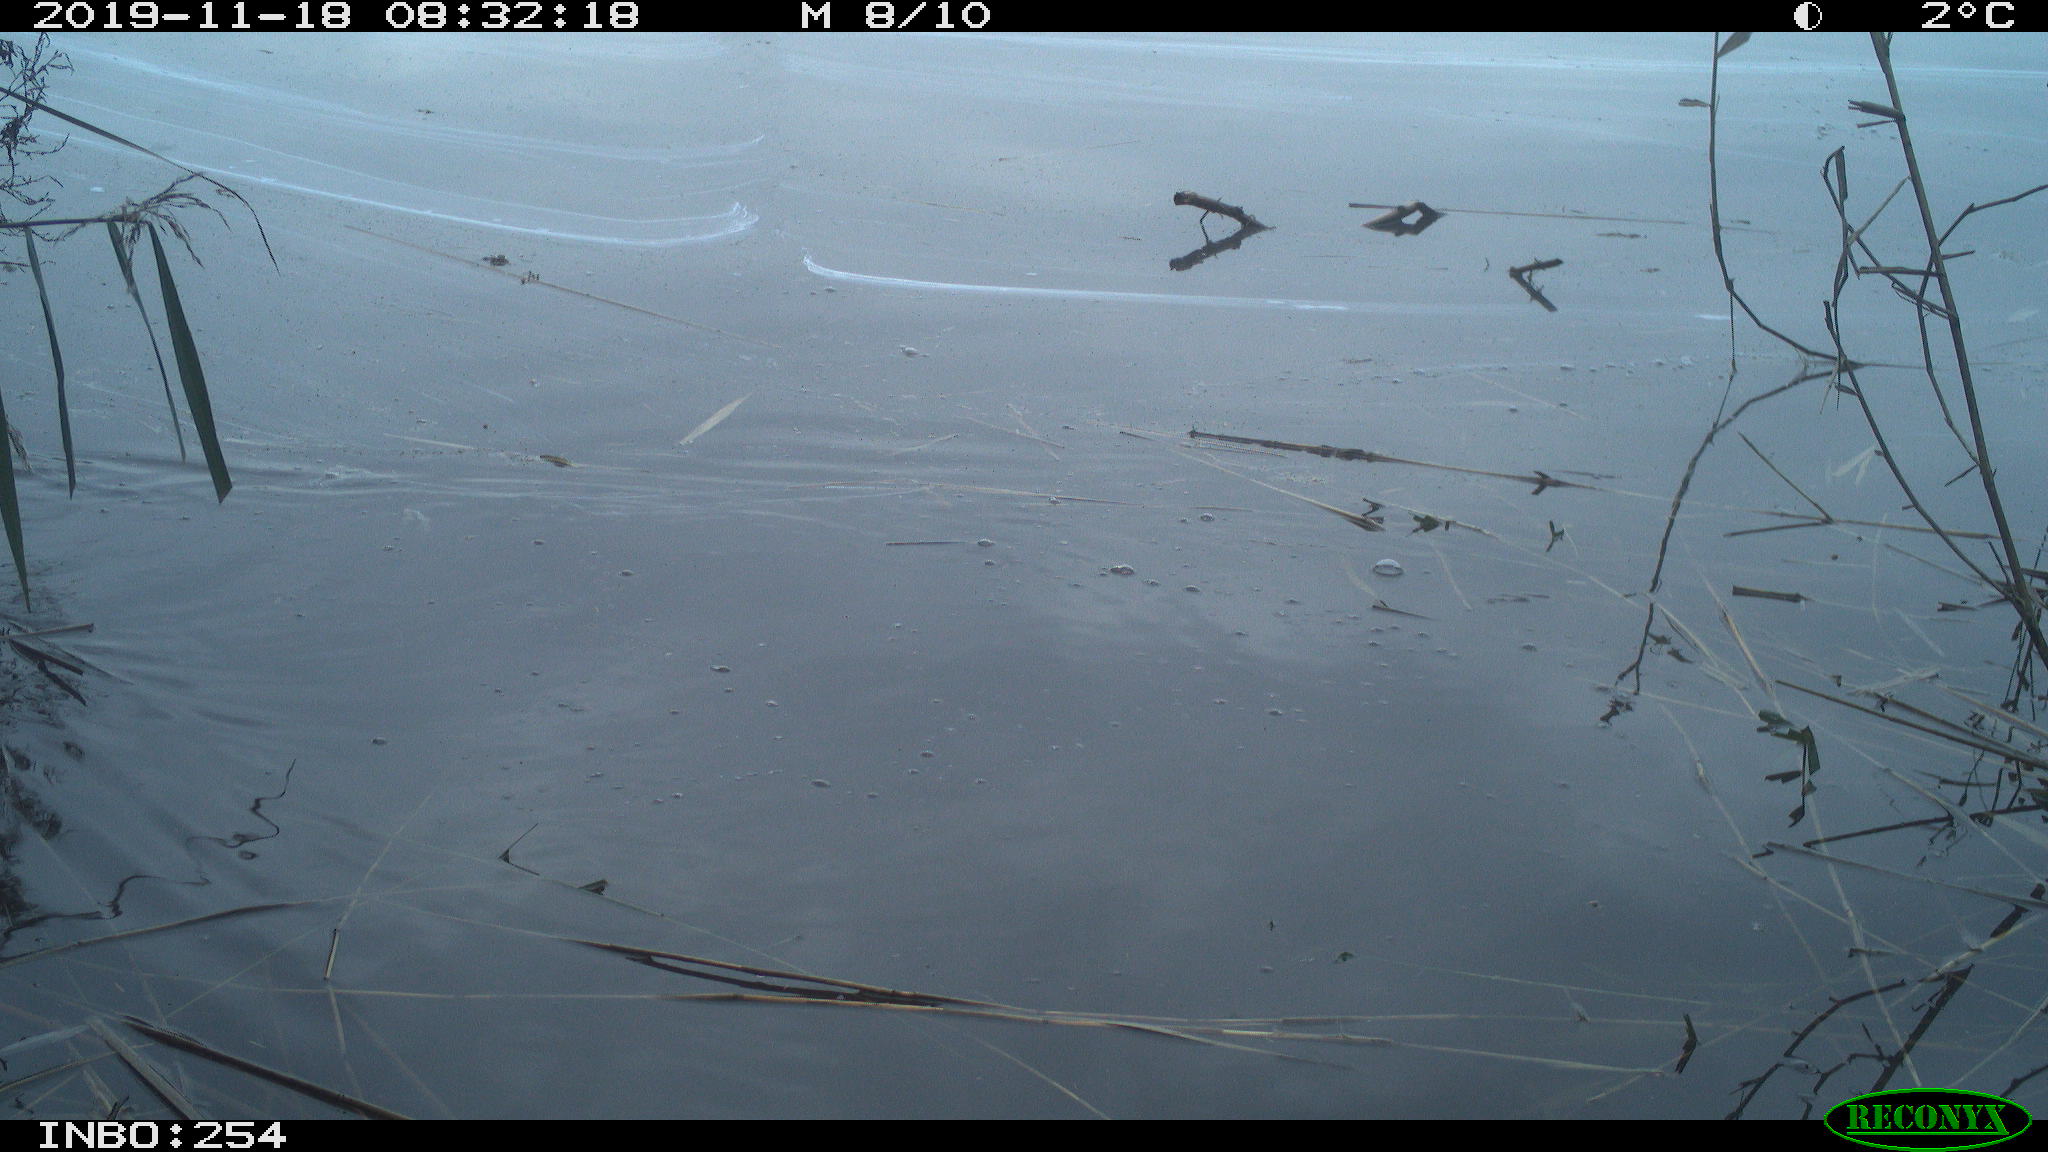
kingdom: Animalia
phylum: Chordata
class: Aves
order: Gruiformes
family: Rallidae
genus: Gallinula
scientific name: Gallinula chloropus
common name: Common moorhen
